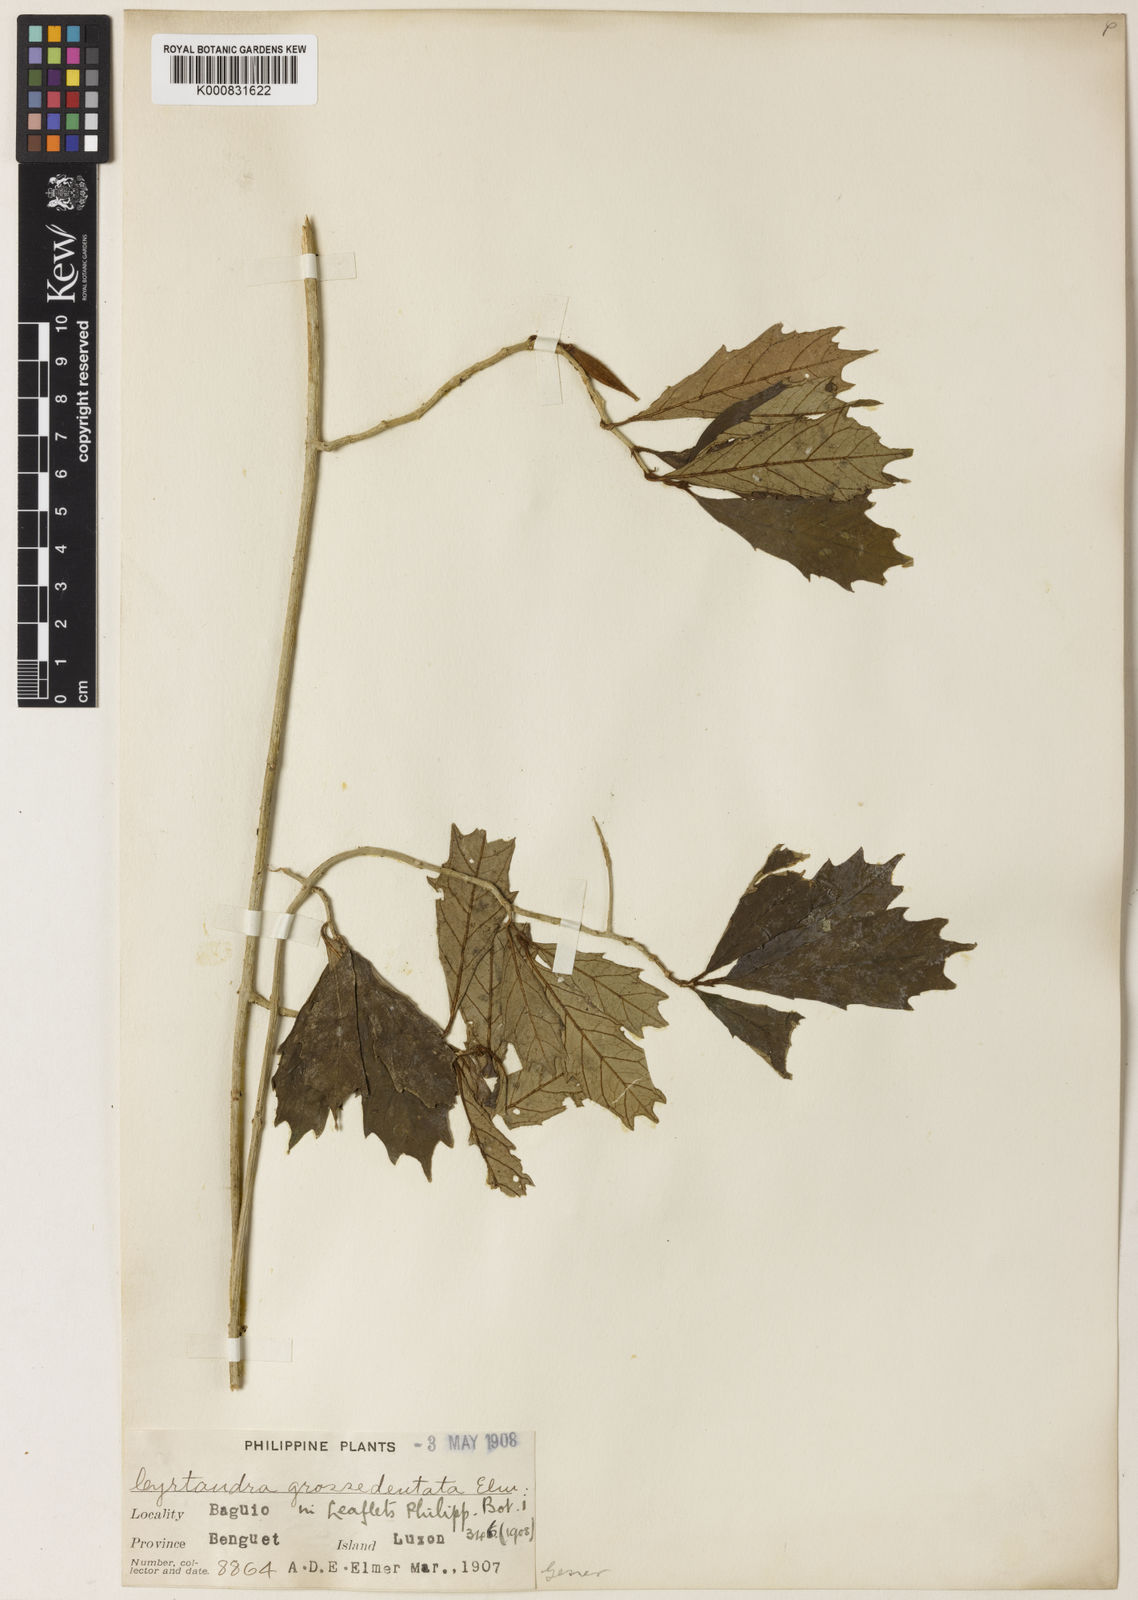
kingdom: Plantae
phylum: Tracheophyta
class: Magnoliopsida
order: Lamiales
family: Gesneriaceae
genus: Cyrtandra
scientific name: Cyrtandra macrodiscus
